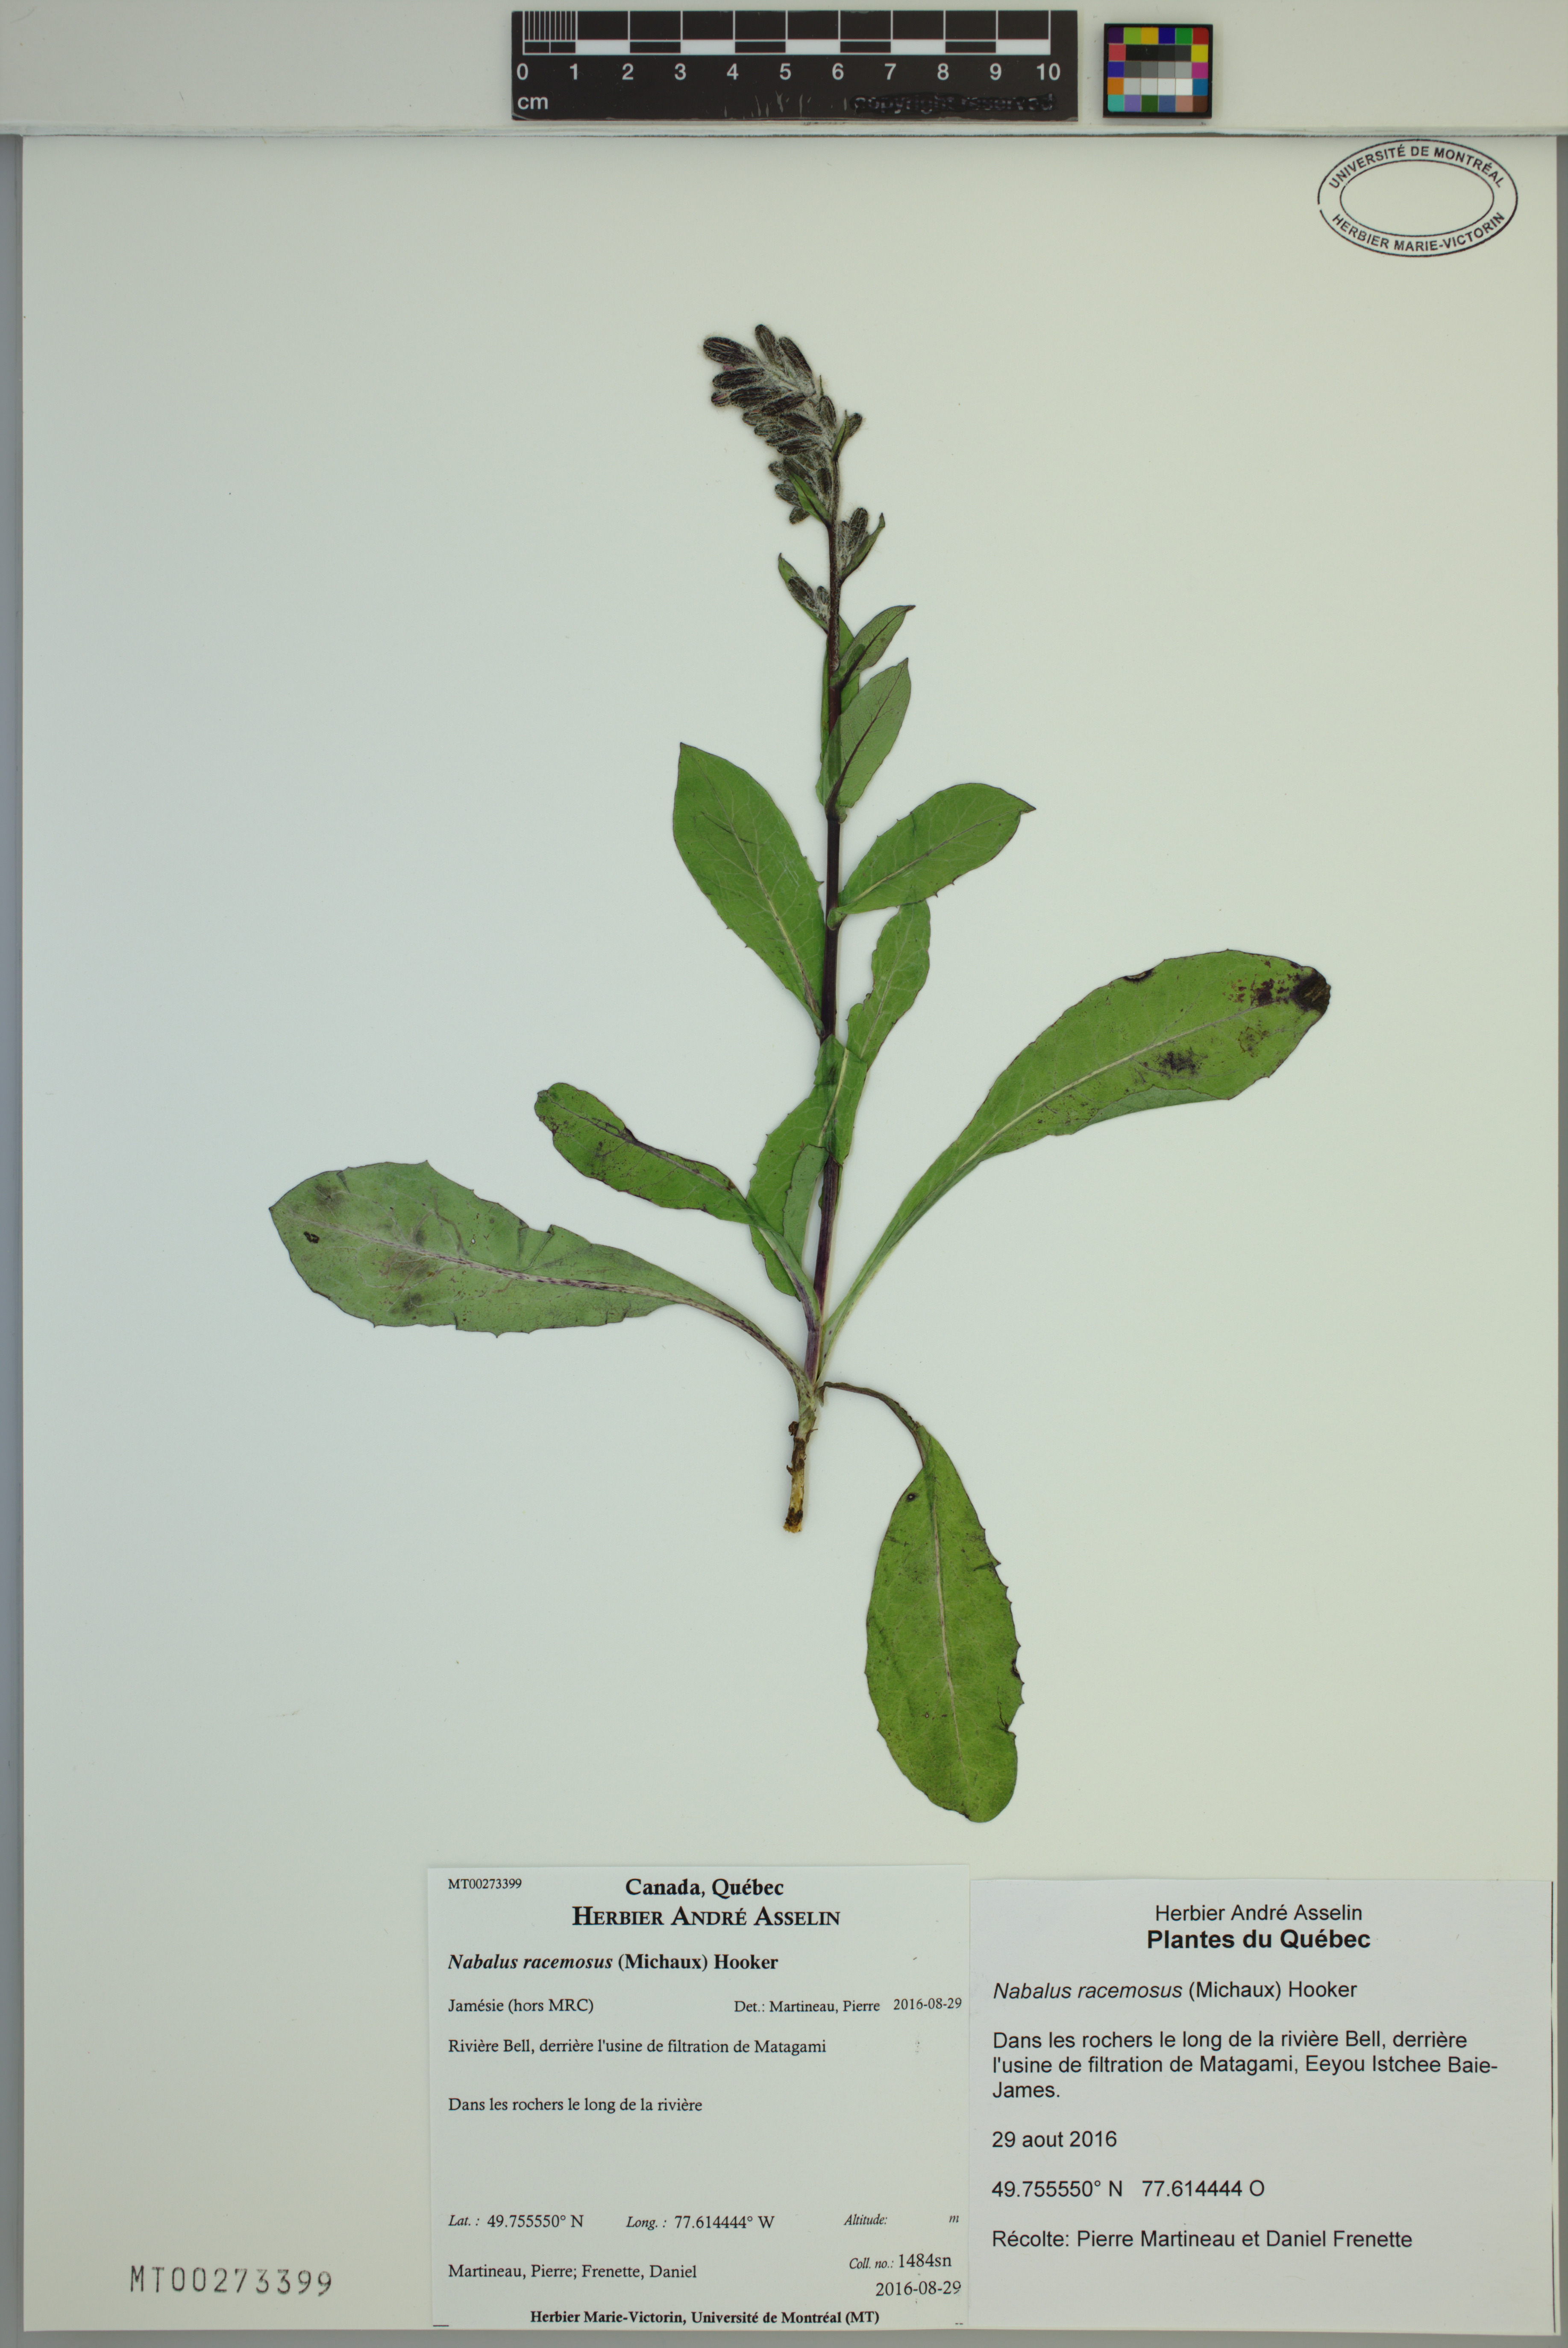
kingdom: Plantae
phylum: Tracheophyta
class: Magnoliopsida
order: Asterales
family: Asteraceae
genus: Nabalus
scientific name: Nabalus racemosus
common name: Glaucous white lettuce
